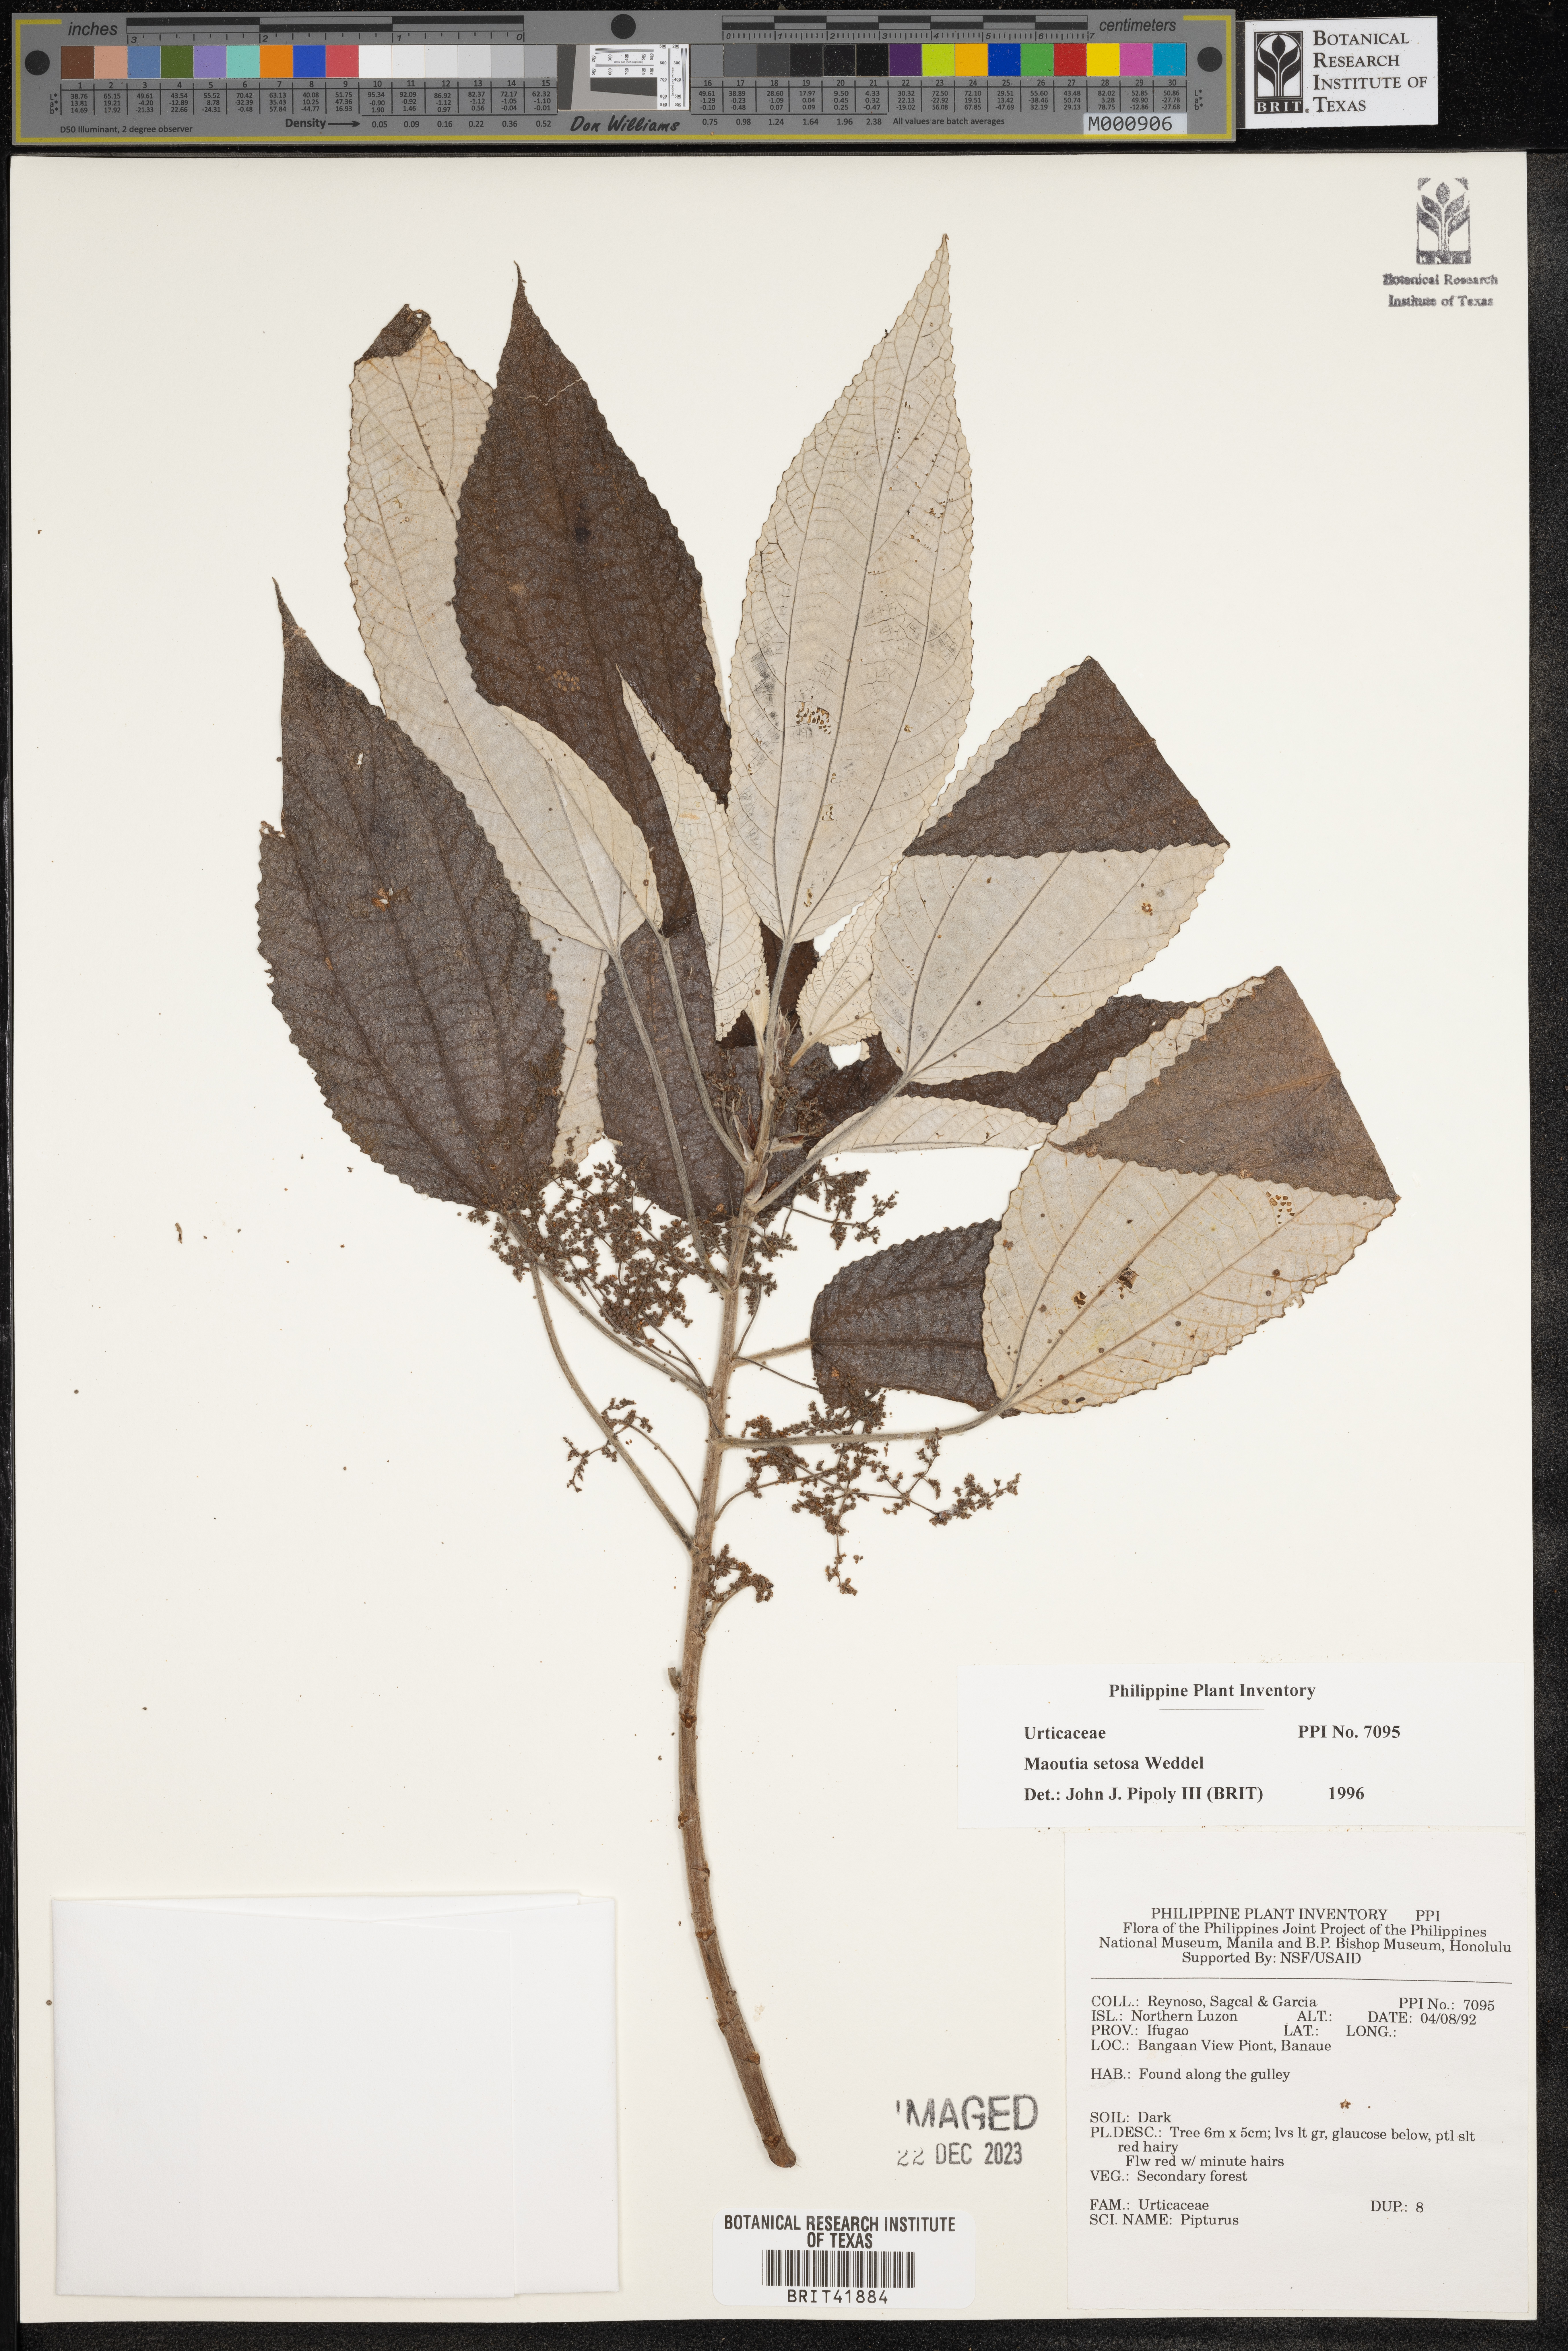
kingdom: Plantae
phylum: Tracheophyta
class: Magnoliopsida
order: Rosales
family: Urticaceae
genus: Maoutia
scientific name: Maoutia setosa
